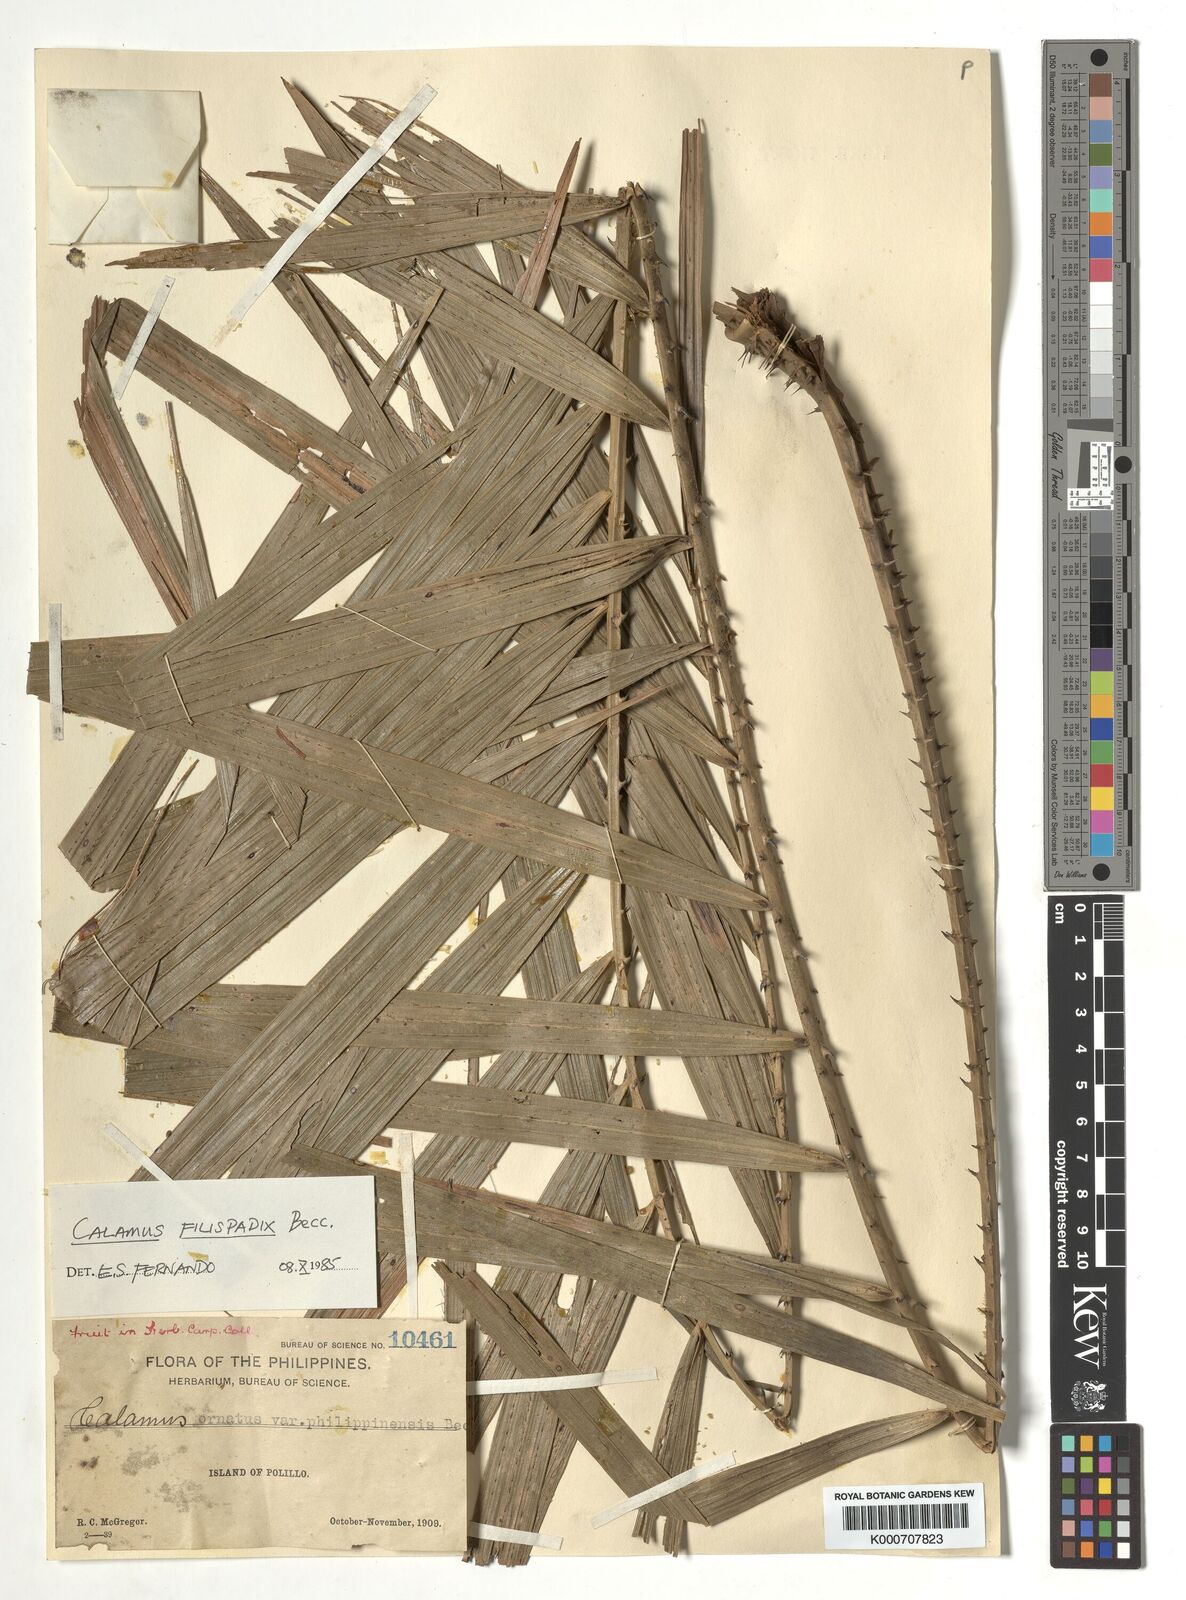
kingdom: Plantae
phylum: Tracheophyta
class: Liliopsida
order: Arecales
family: Arecaceae
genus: Calamus
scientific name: Calamus filispadix
